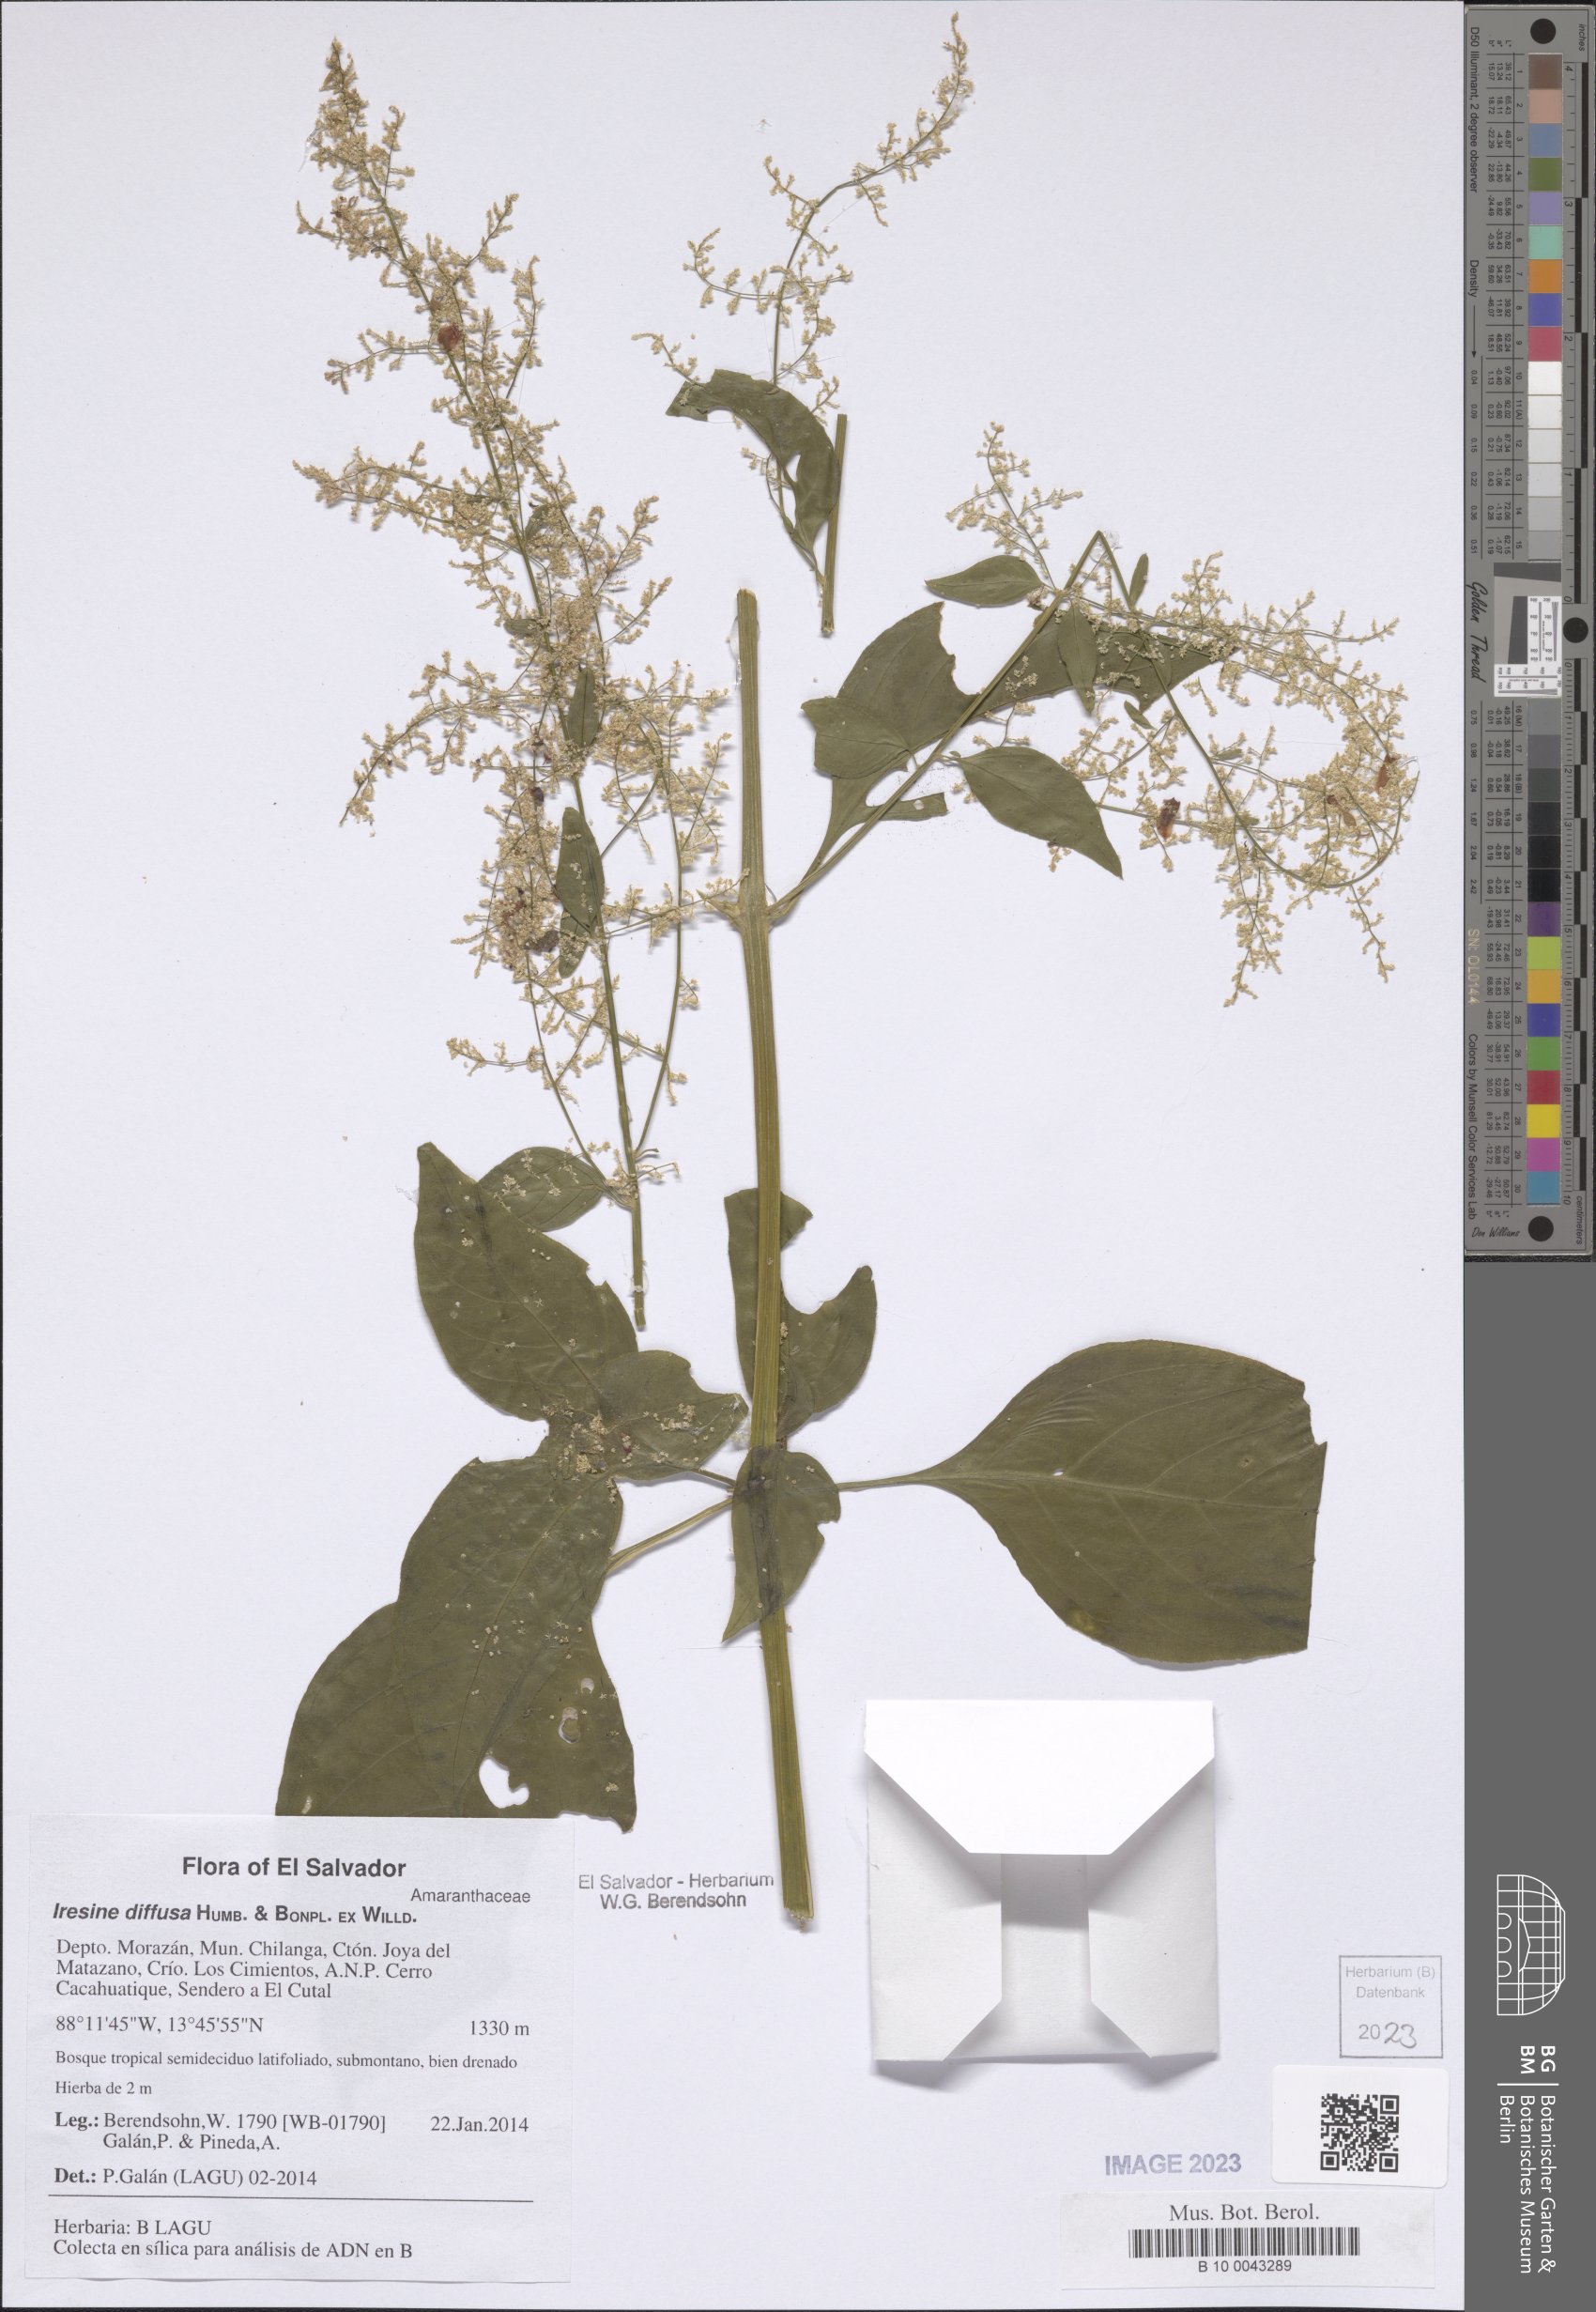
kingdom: Plantae
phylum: Tracheophyta
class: Magnoliopsida
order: Caryophyllales
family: Amaranthaceae
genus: Iresine
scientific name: Iresine diffusa
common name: Juba's-bush
